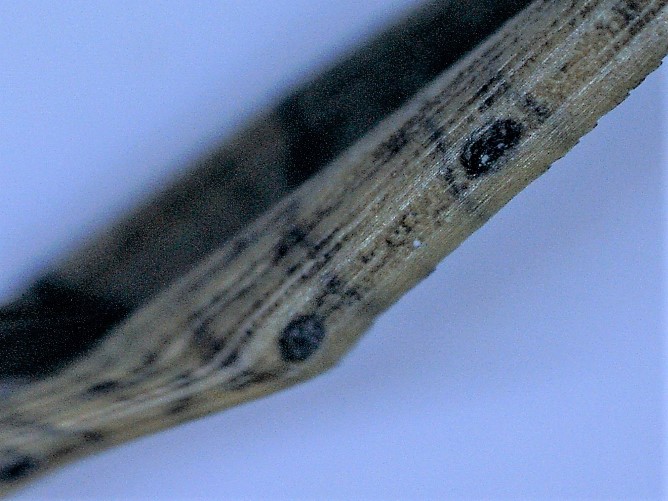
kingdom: Fungi
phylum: Ascomycota
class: Leotiomycetes
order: Rhytismatales
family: Rhytismataceae
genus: Lophodermium
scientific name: Lophodermium pinastri
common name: fyrre-fureplet
